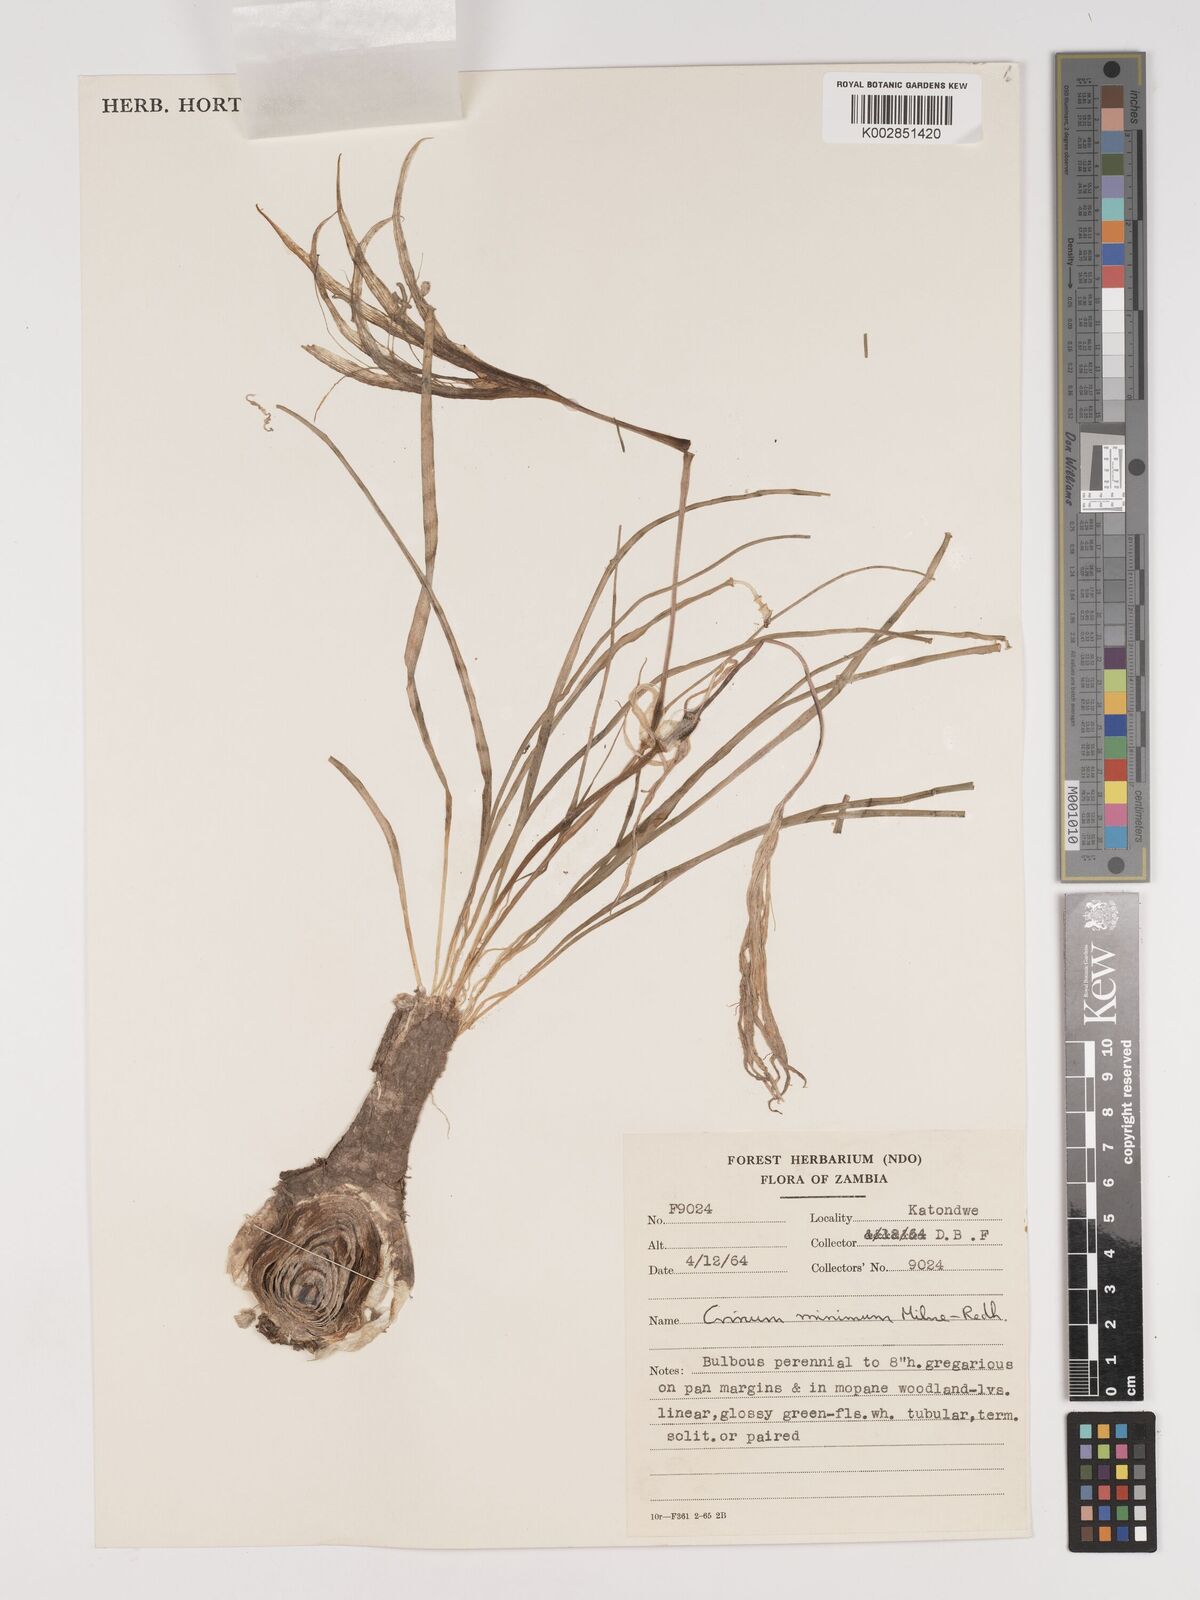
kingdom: Plantae
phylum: Tracheophyta
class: Liliopsida
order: Asparagales
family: Amaryllidaceae
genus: Crinum
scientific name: Crinum minimum
